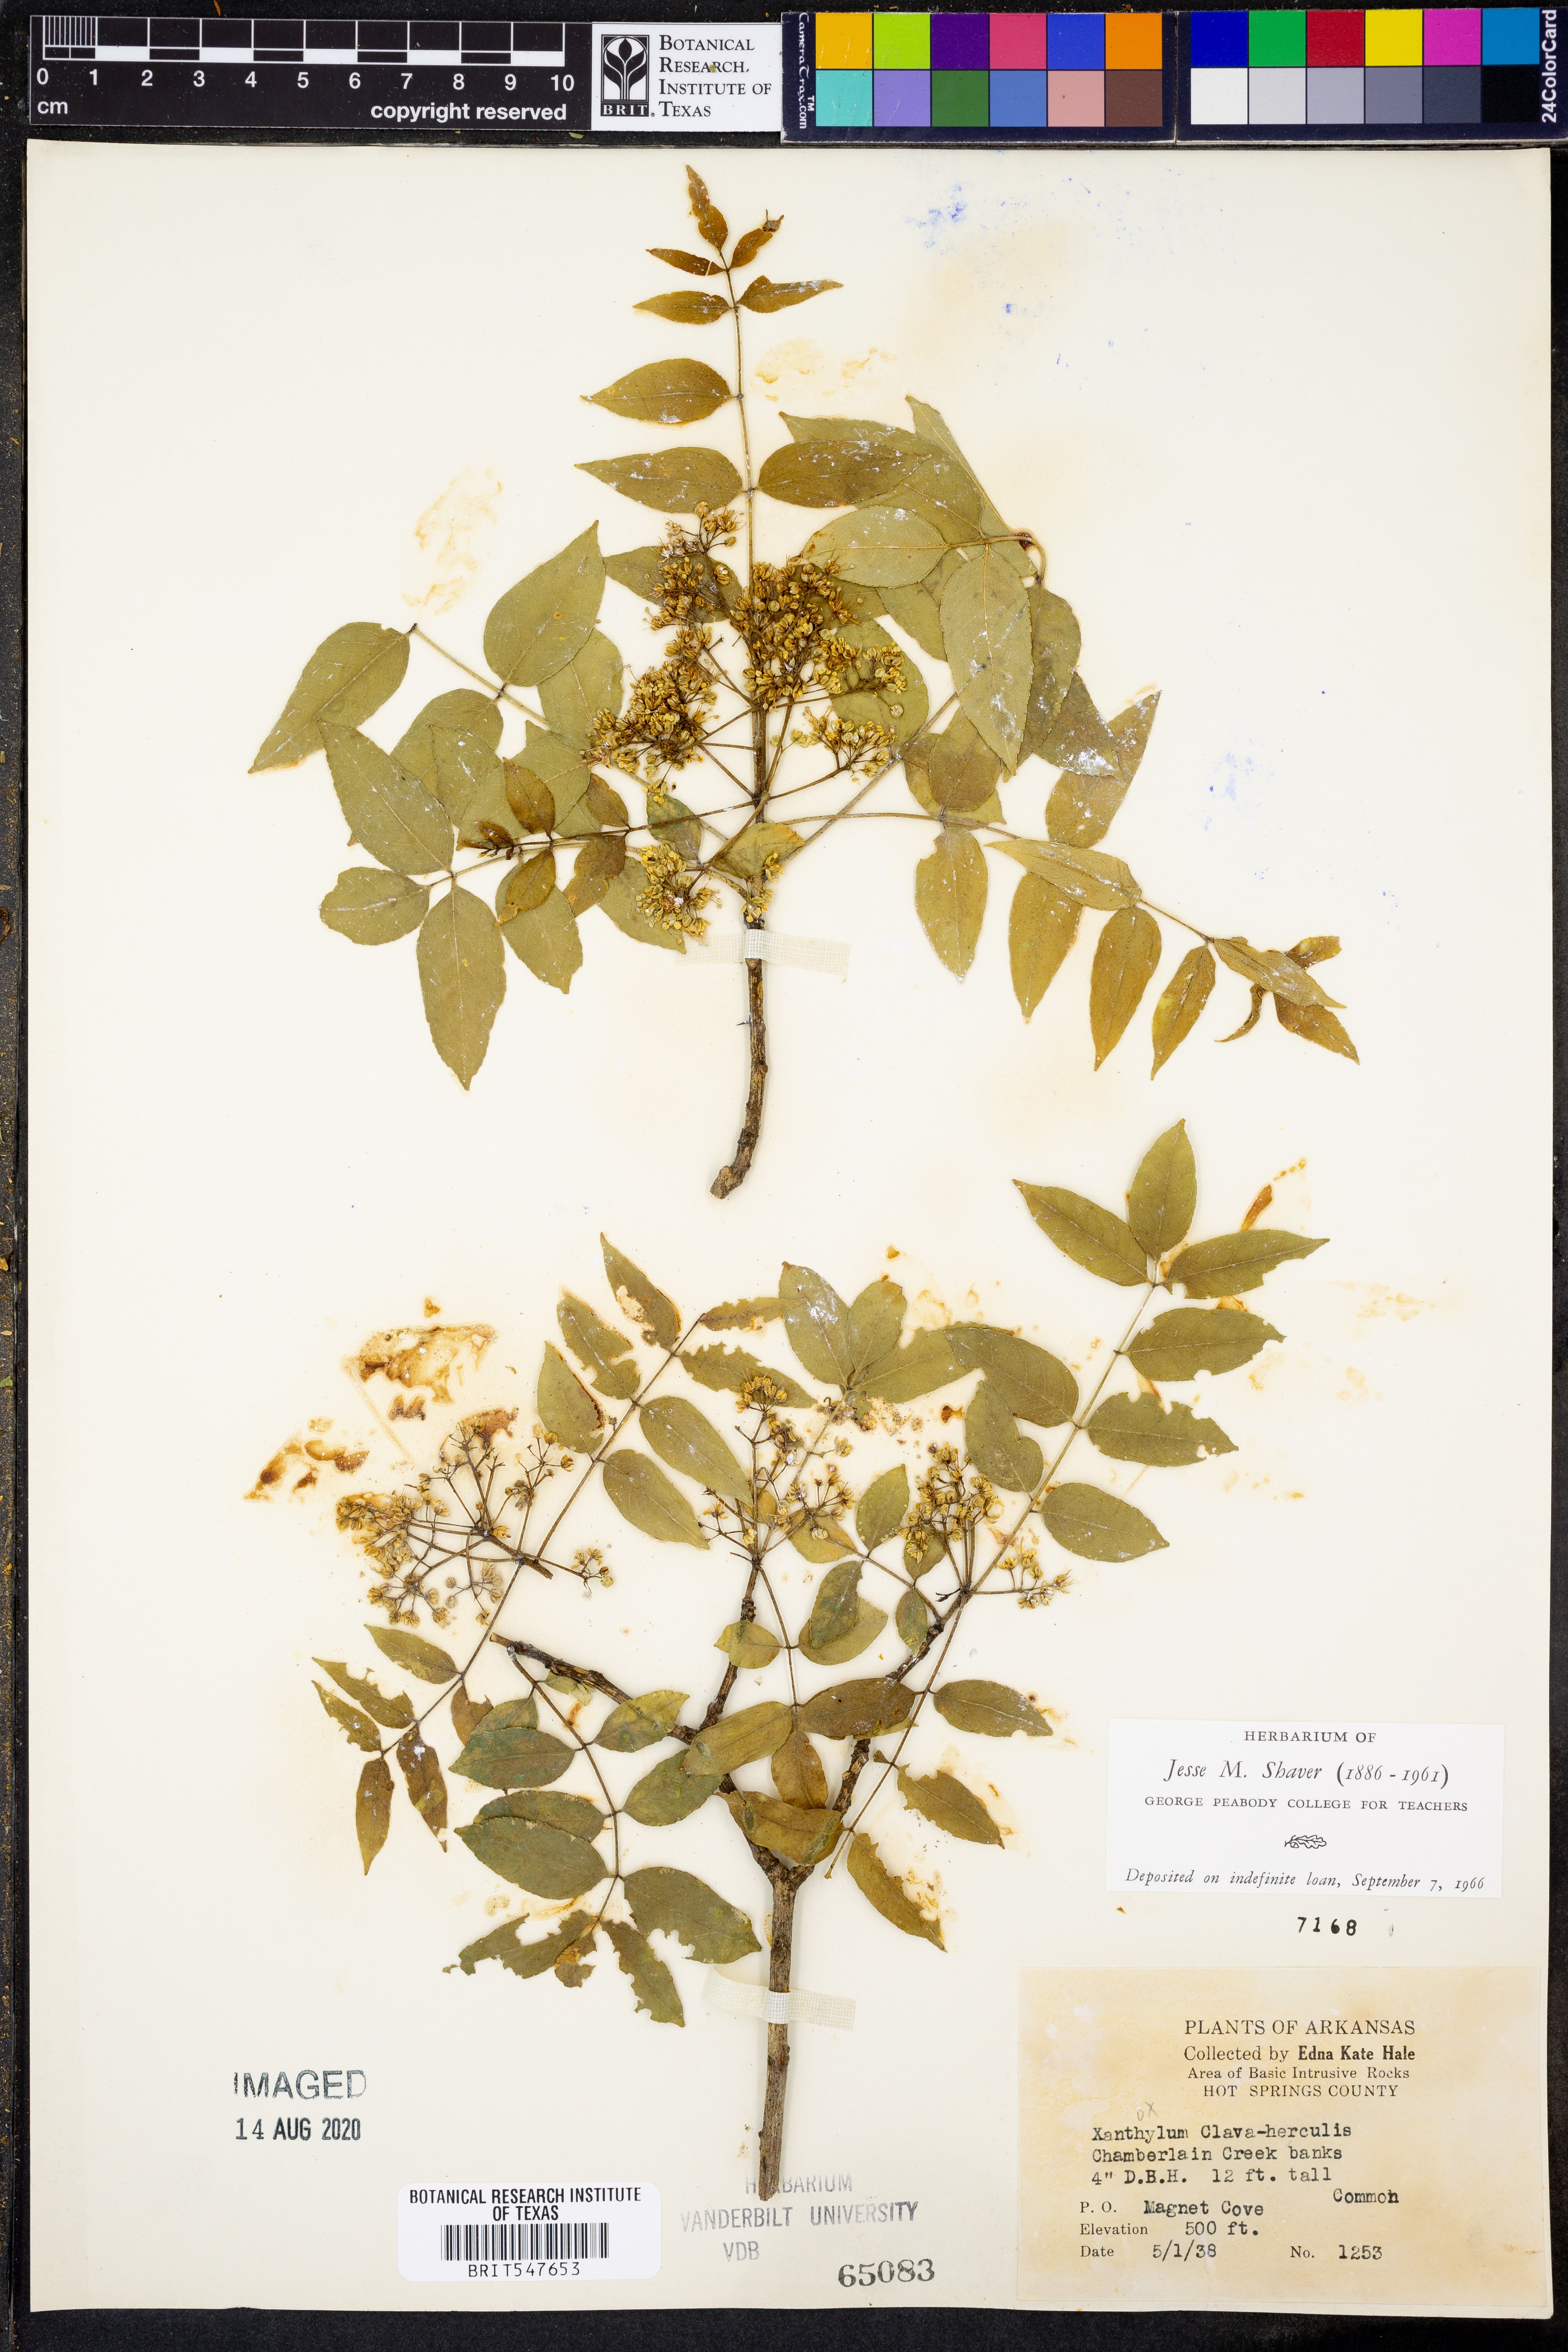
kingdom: Plantae
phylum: Tracheophyta
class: Magnoliopsida
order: Sapindales
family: Rutaceae
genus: Zanthoxylum
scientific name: Zanthoxylum avicennae
